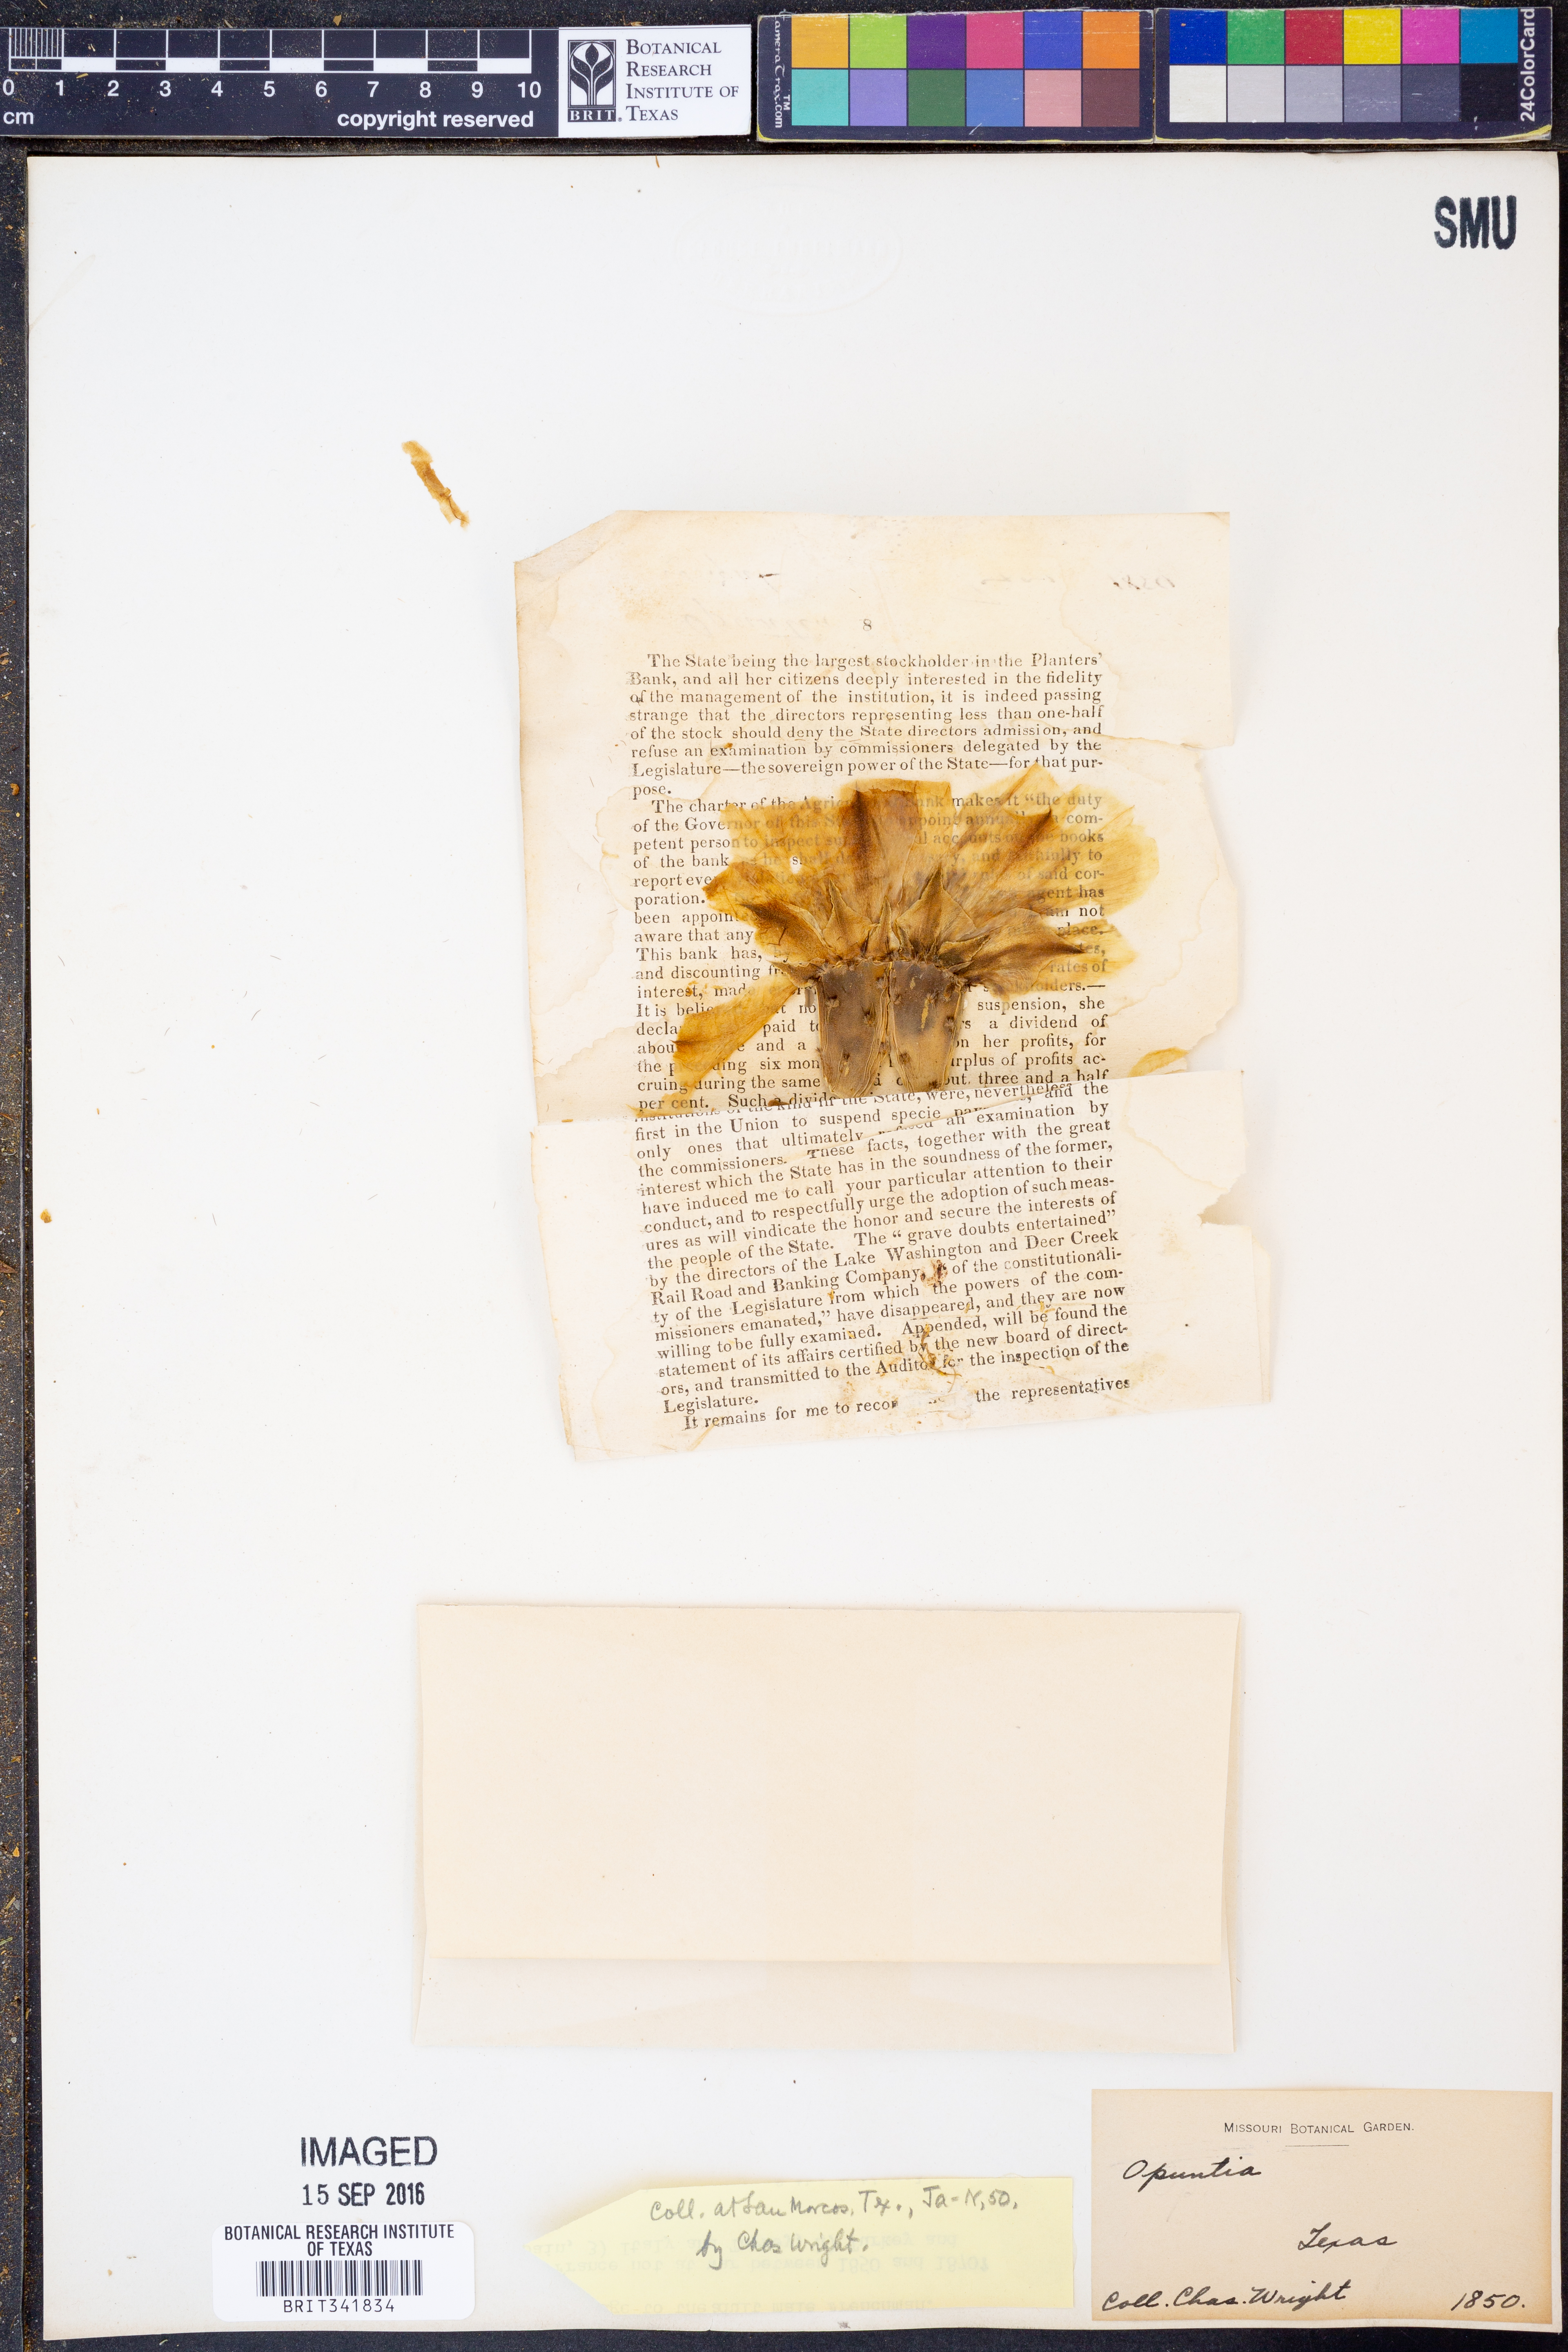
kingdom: Plantae
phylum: Tracheophyta
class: Magnoliopsida
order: Caryophyllales
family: Cactaceae
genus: Opuntia
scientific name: Opuntia
